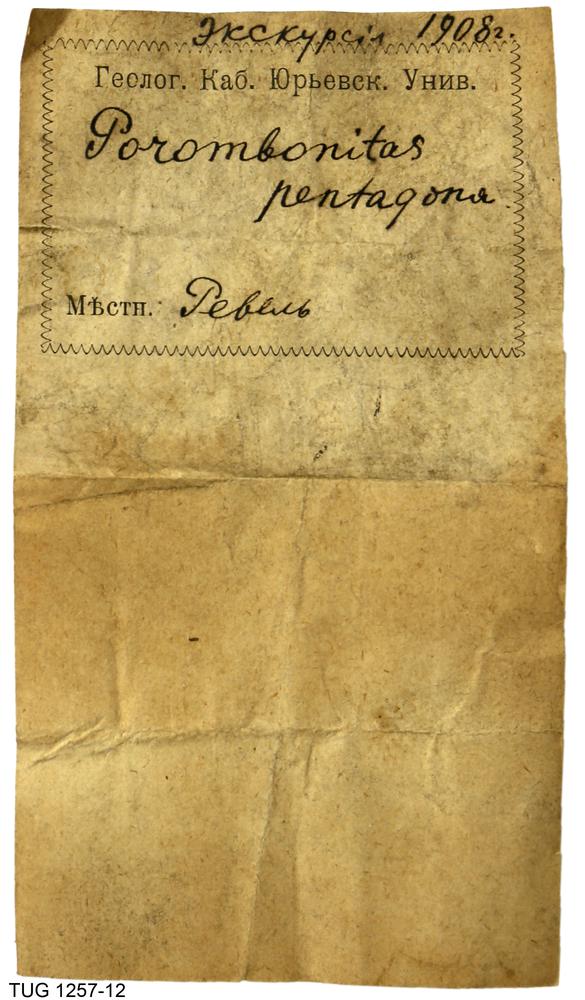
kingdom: Animalia
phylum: Brachiopoda
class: Rhynchonellata
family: Porambonitidae
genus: Porambonites
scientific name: Porambonites
